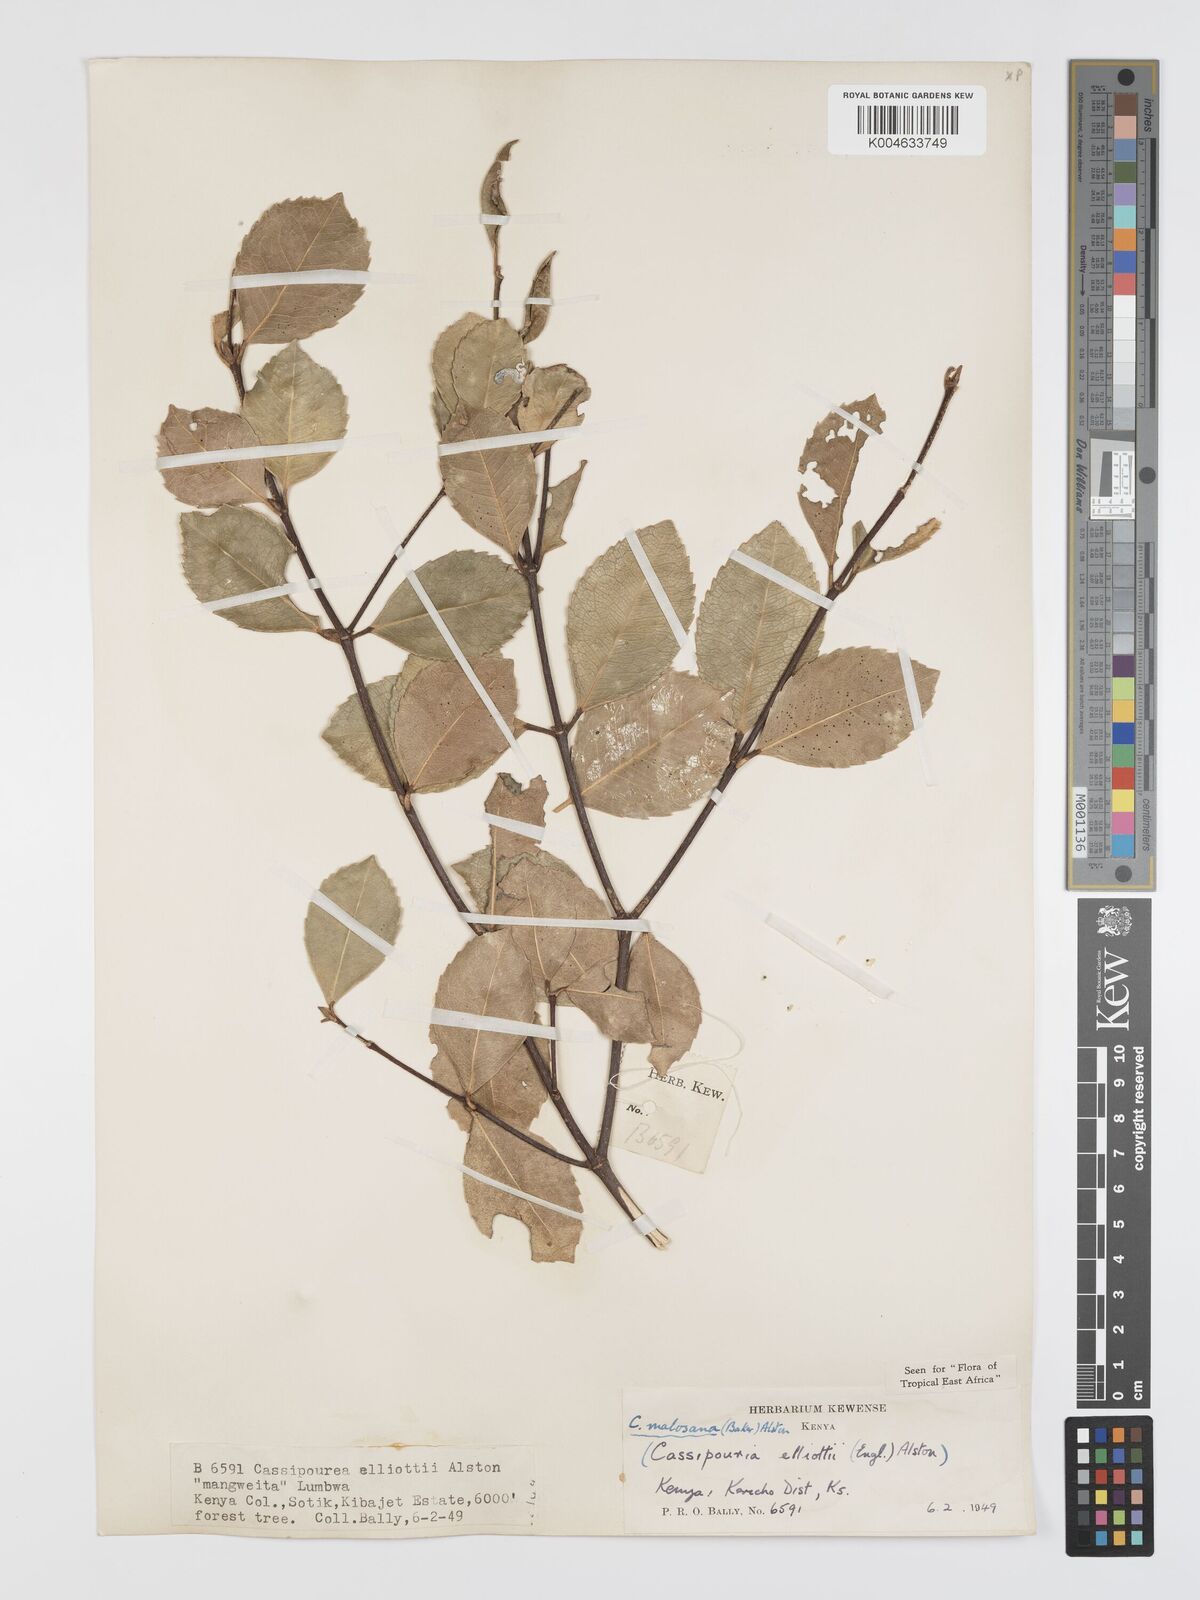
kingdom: Plantae
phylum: Tracheophyta
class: Magnoliopsida
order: Malpighiales
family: Rhizophoraceae
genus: Cassipourea
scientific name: Cassipourea
